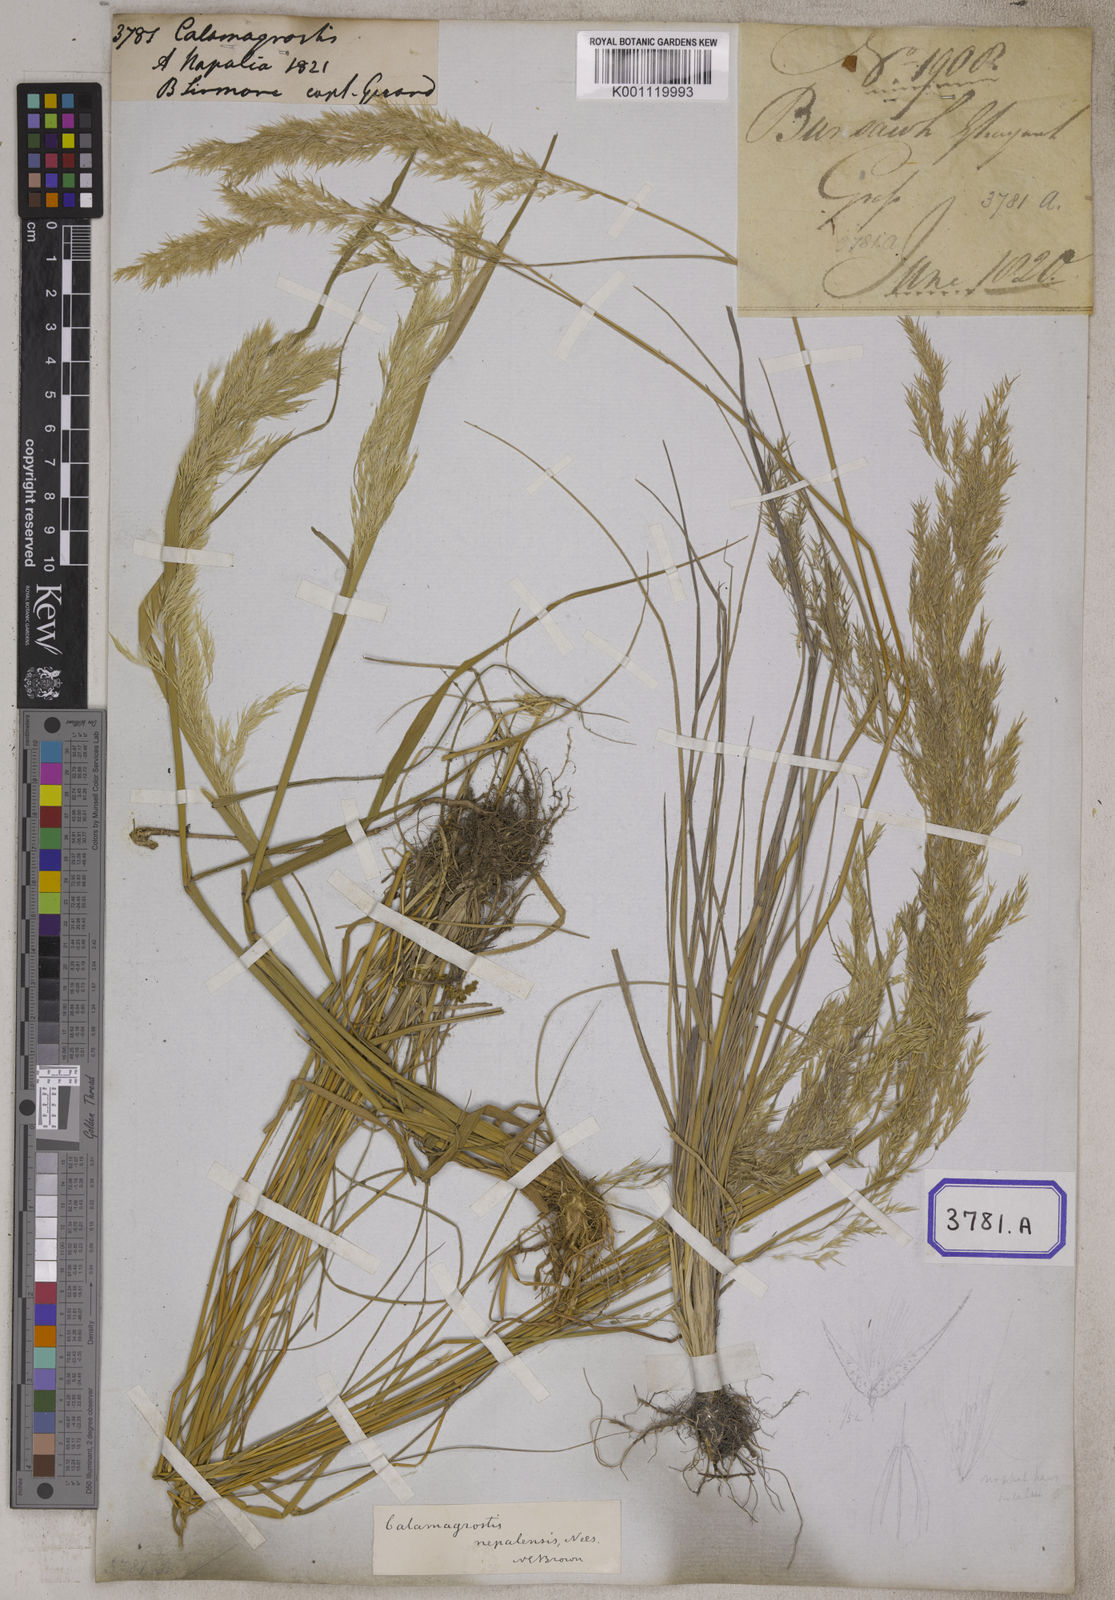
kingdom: Plantae
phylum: Tracheophyta
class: Liliopsida
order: Poales
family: Poaceae
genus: Calamagrostis
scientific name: Calamagrostis
